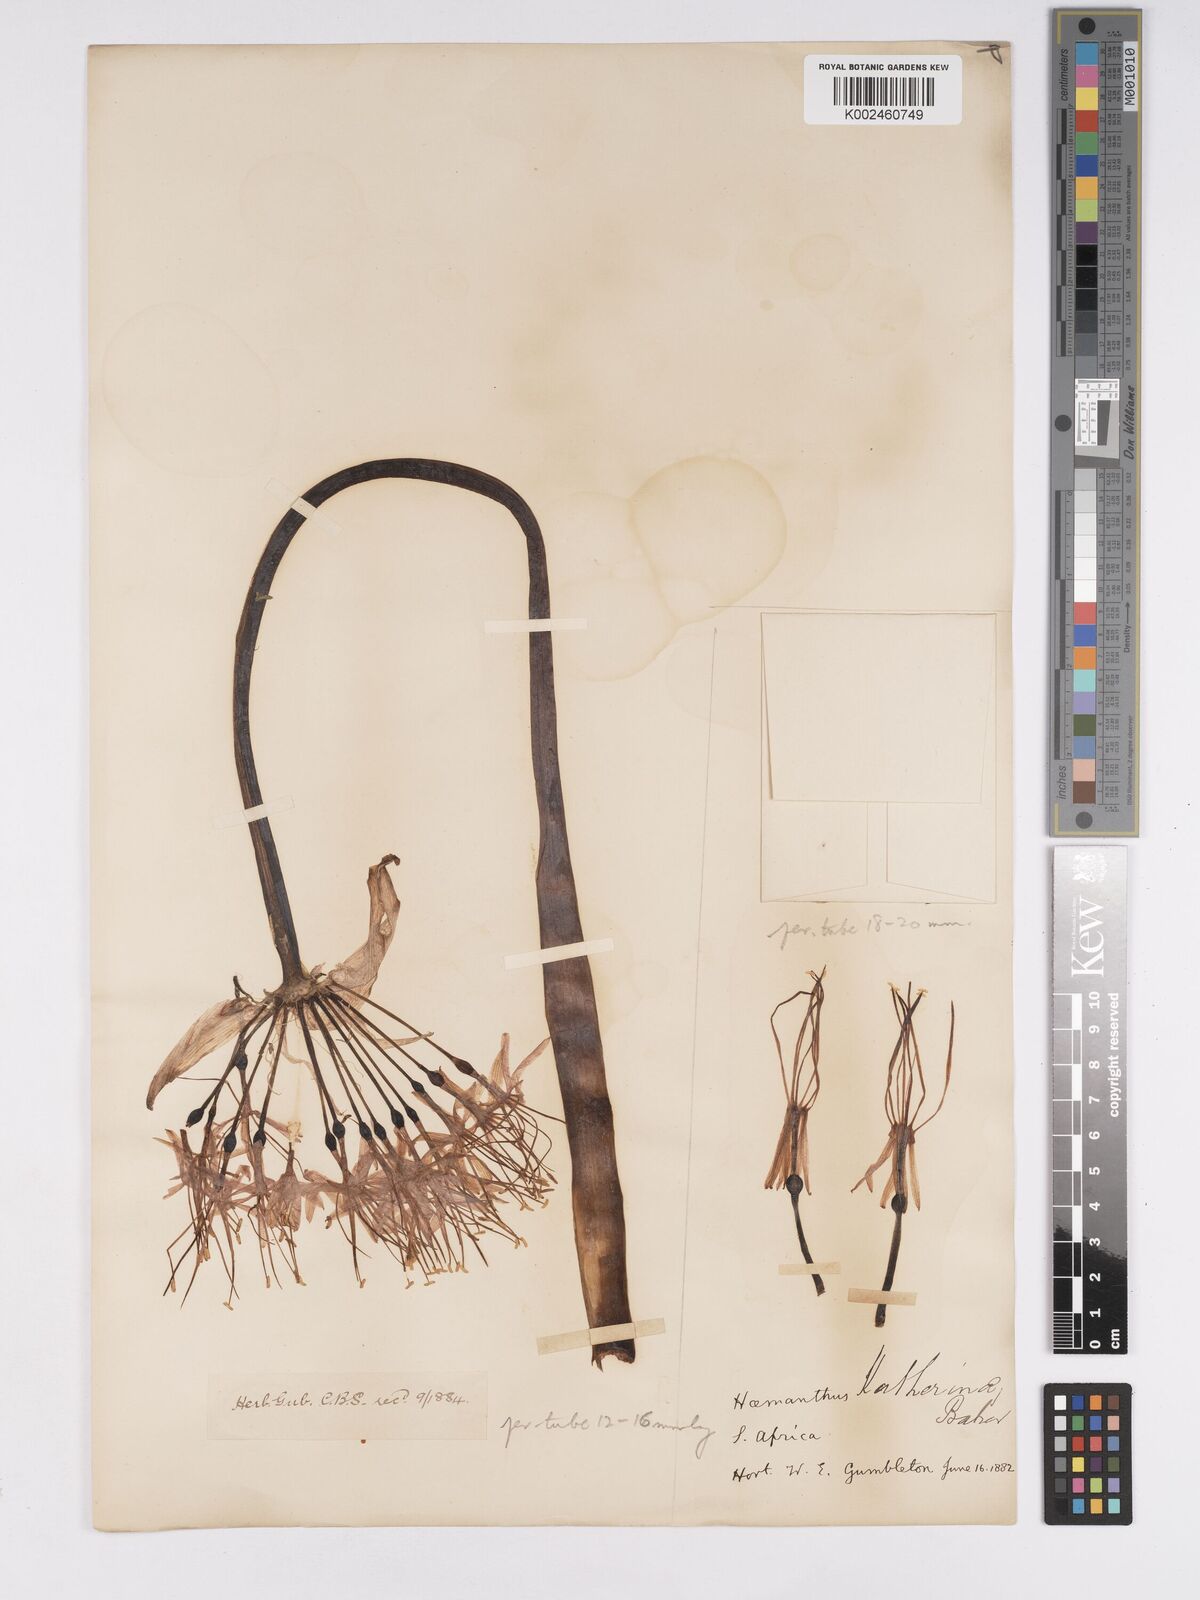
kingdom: Plantae
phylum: Tracheophyta
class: Liliopsida
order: Asparagales
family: Amaryllidaceae
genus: Scadoxus
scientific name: Scadoxus multiflorus
